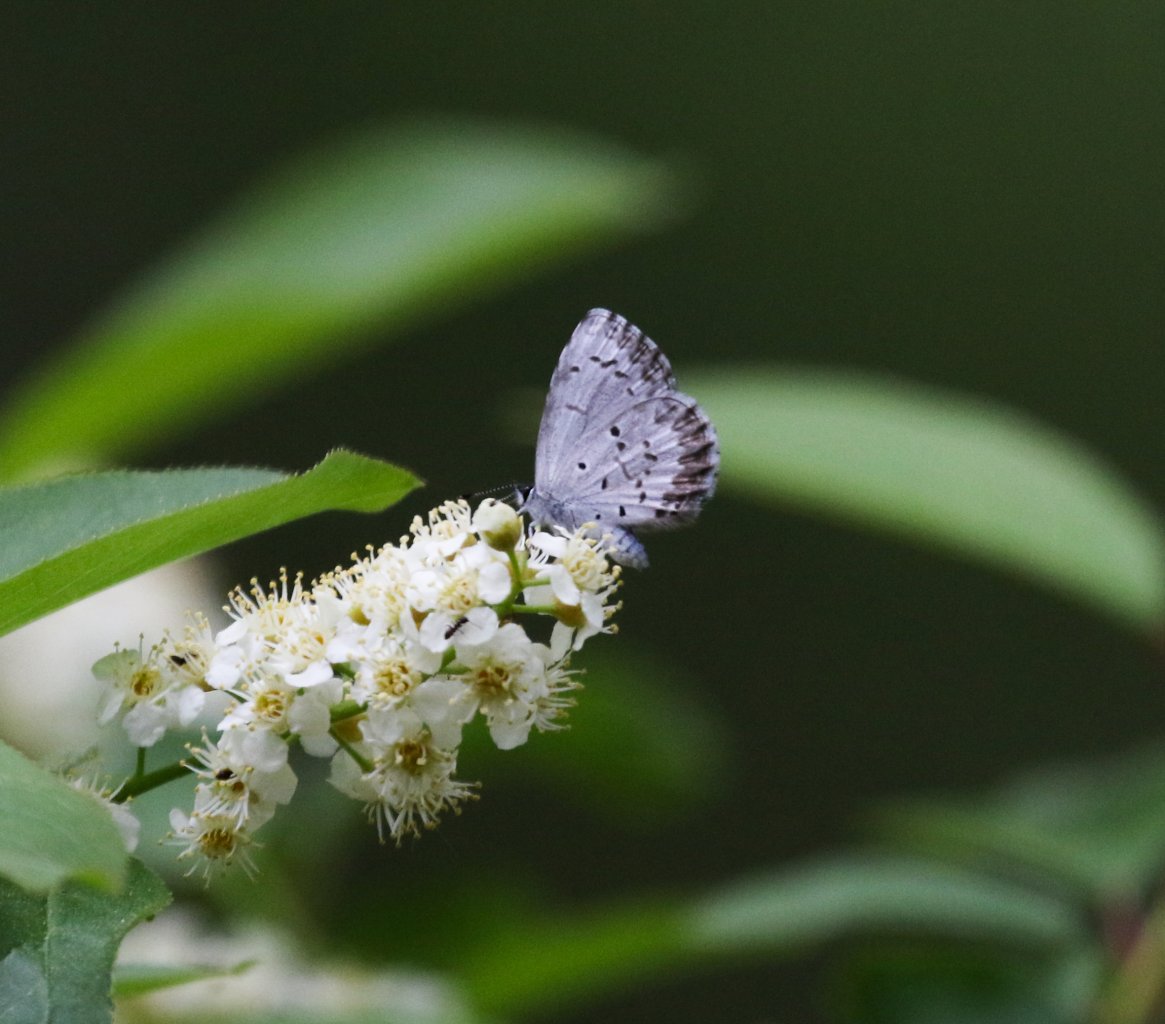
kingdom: Animalia
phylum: Arthropoda
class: Insecta
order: Lepidoptera
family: Lycaenidae
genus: Celastrina
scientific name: Celastrina lucia
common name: Northern Spring Azure
